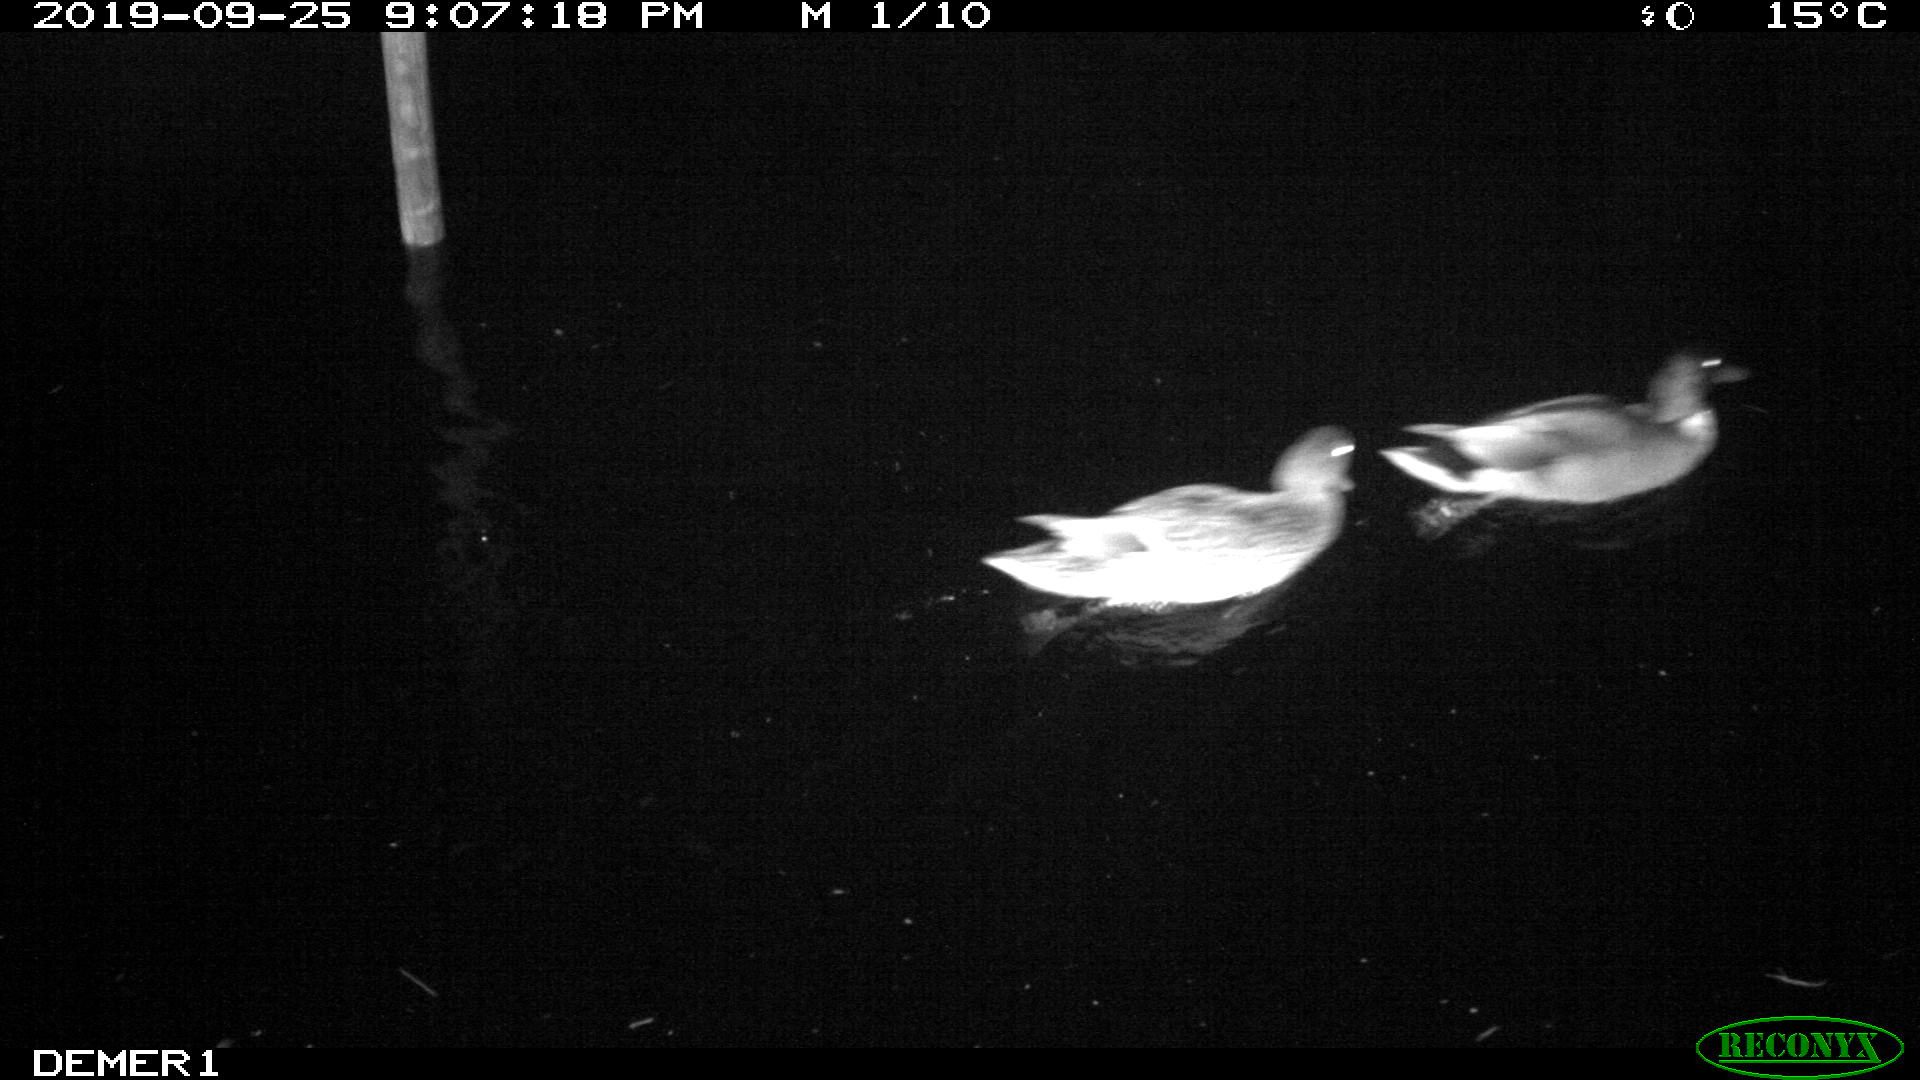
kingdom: Animalia
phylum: Chordata
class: Aves
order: Anseriformes
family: Anatidae
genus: Anas
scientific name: Anas platyrhynchos
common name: Mallard
